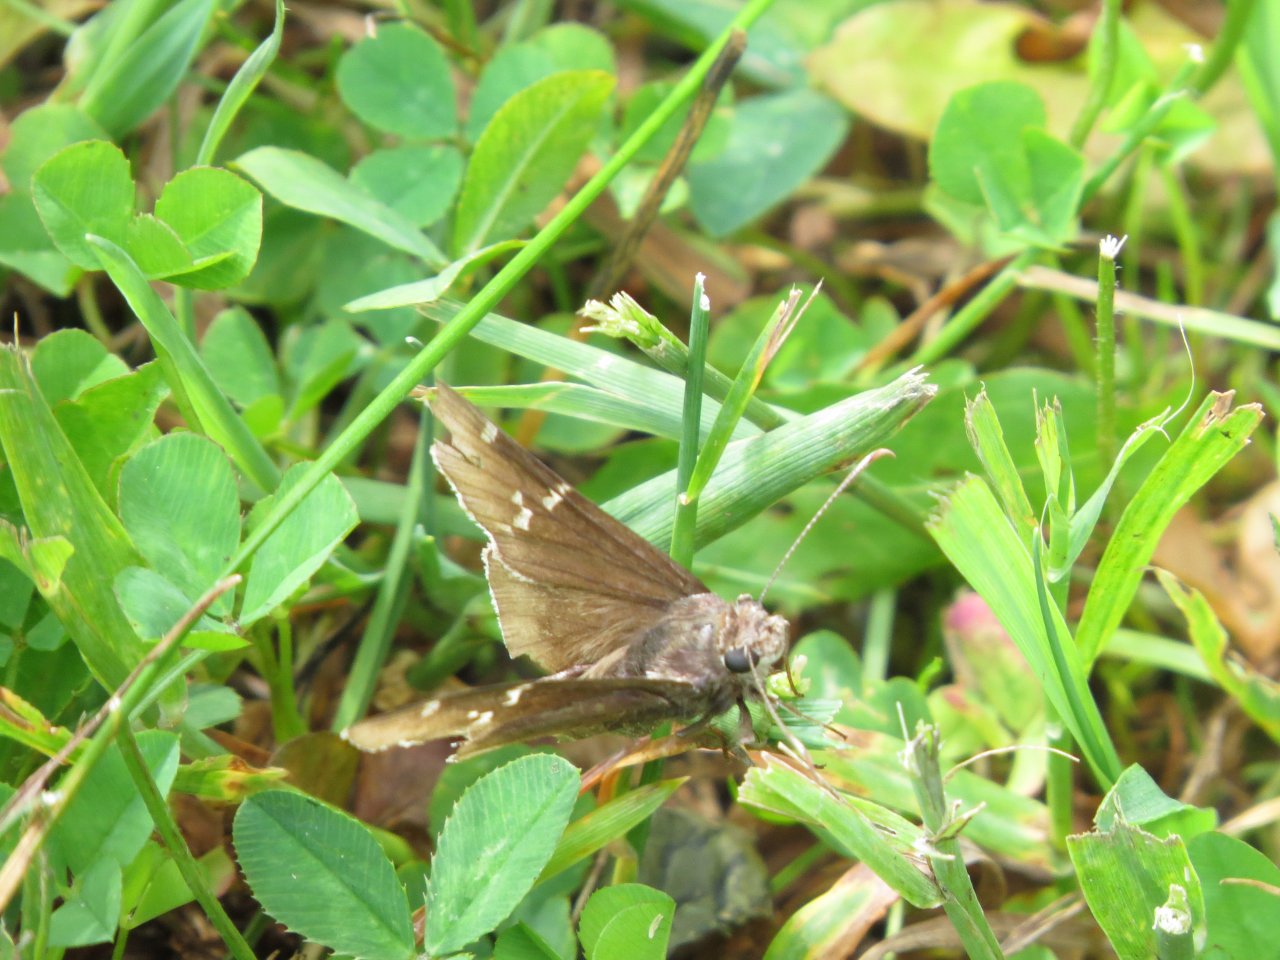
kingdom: Animalia
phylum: Arthropoda
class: Insecta
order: Lepidoptera
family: Hesperiidae
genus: Autochton
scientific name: Autochton
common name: Southern Cloudywing
